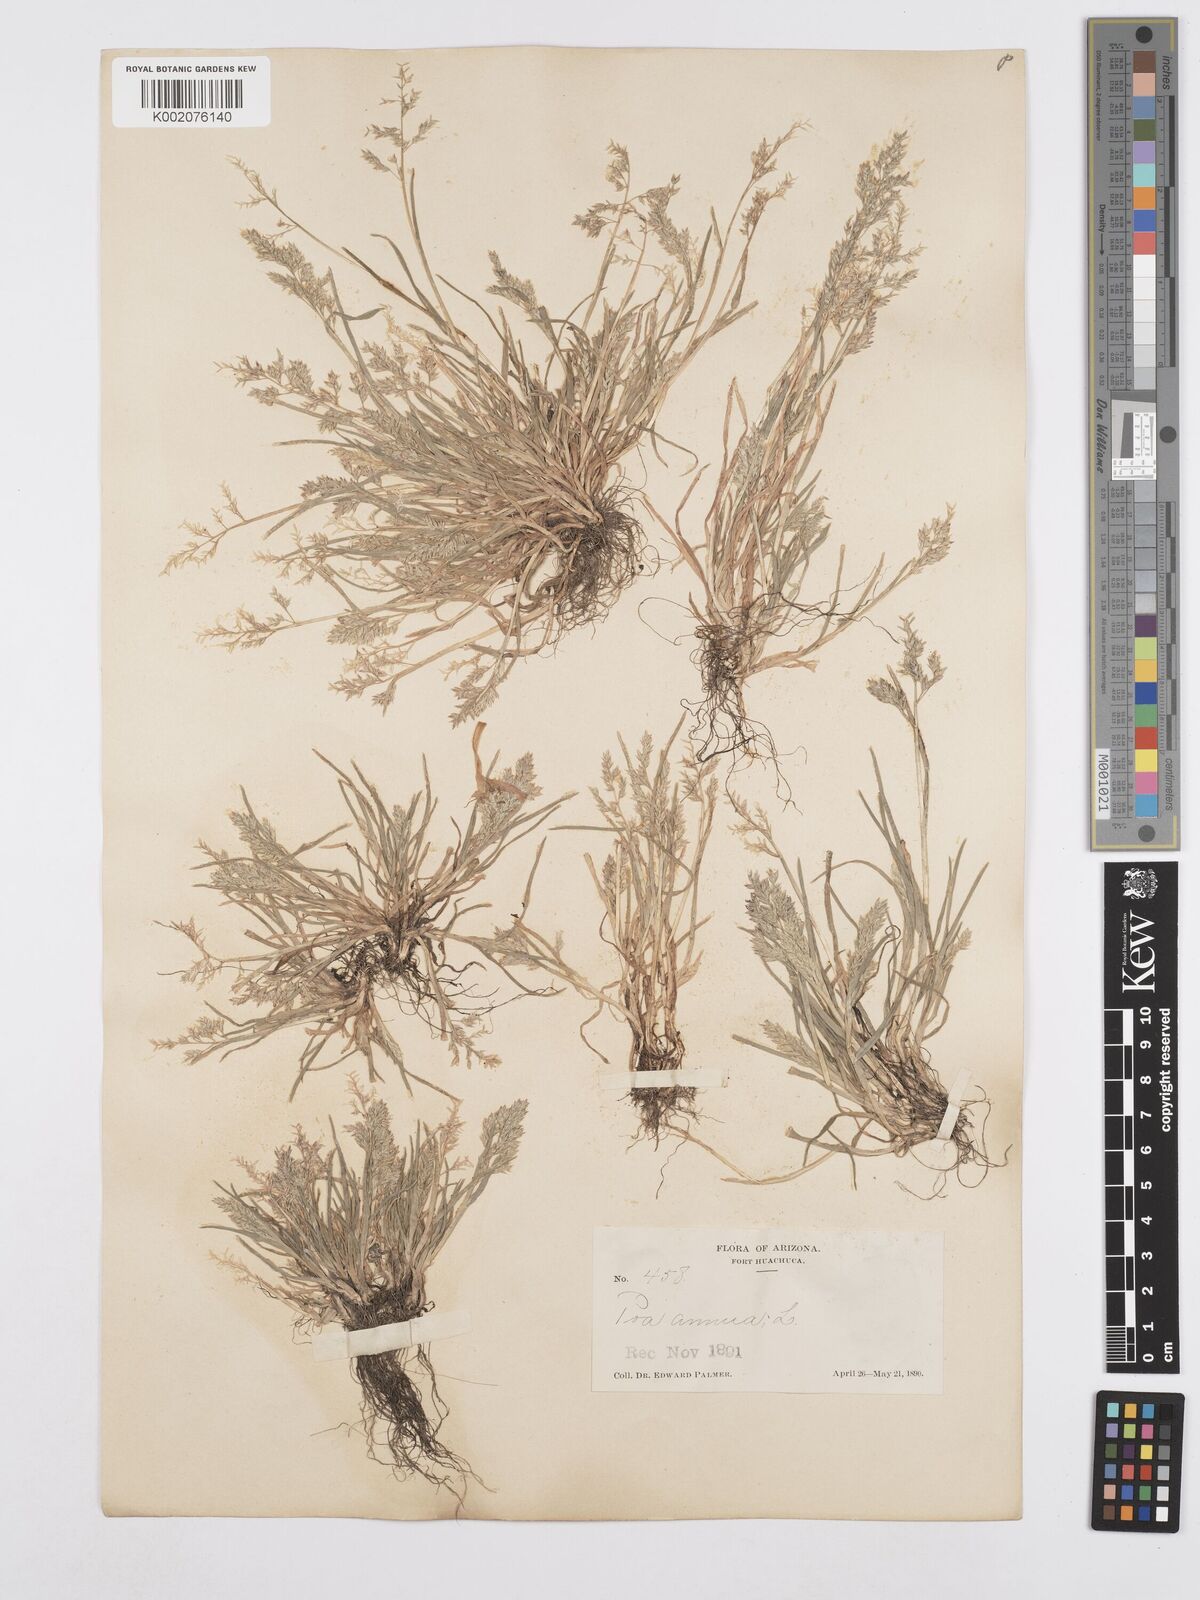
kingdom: Plantae
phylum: Tracheophyta
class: Liliopsida
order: Poales
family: Poaceae
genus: Poa
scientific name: Poa annua
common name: Annual bluegrass
